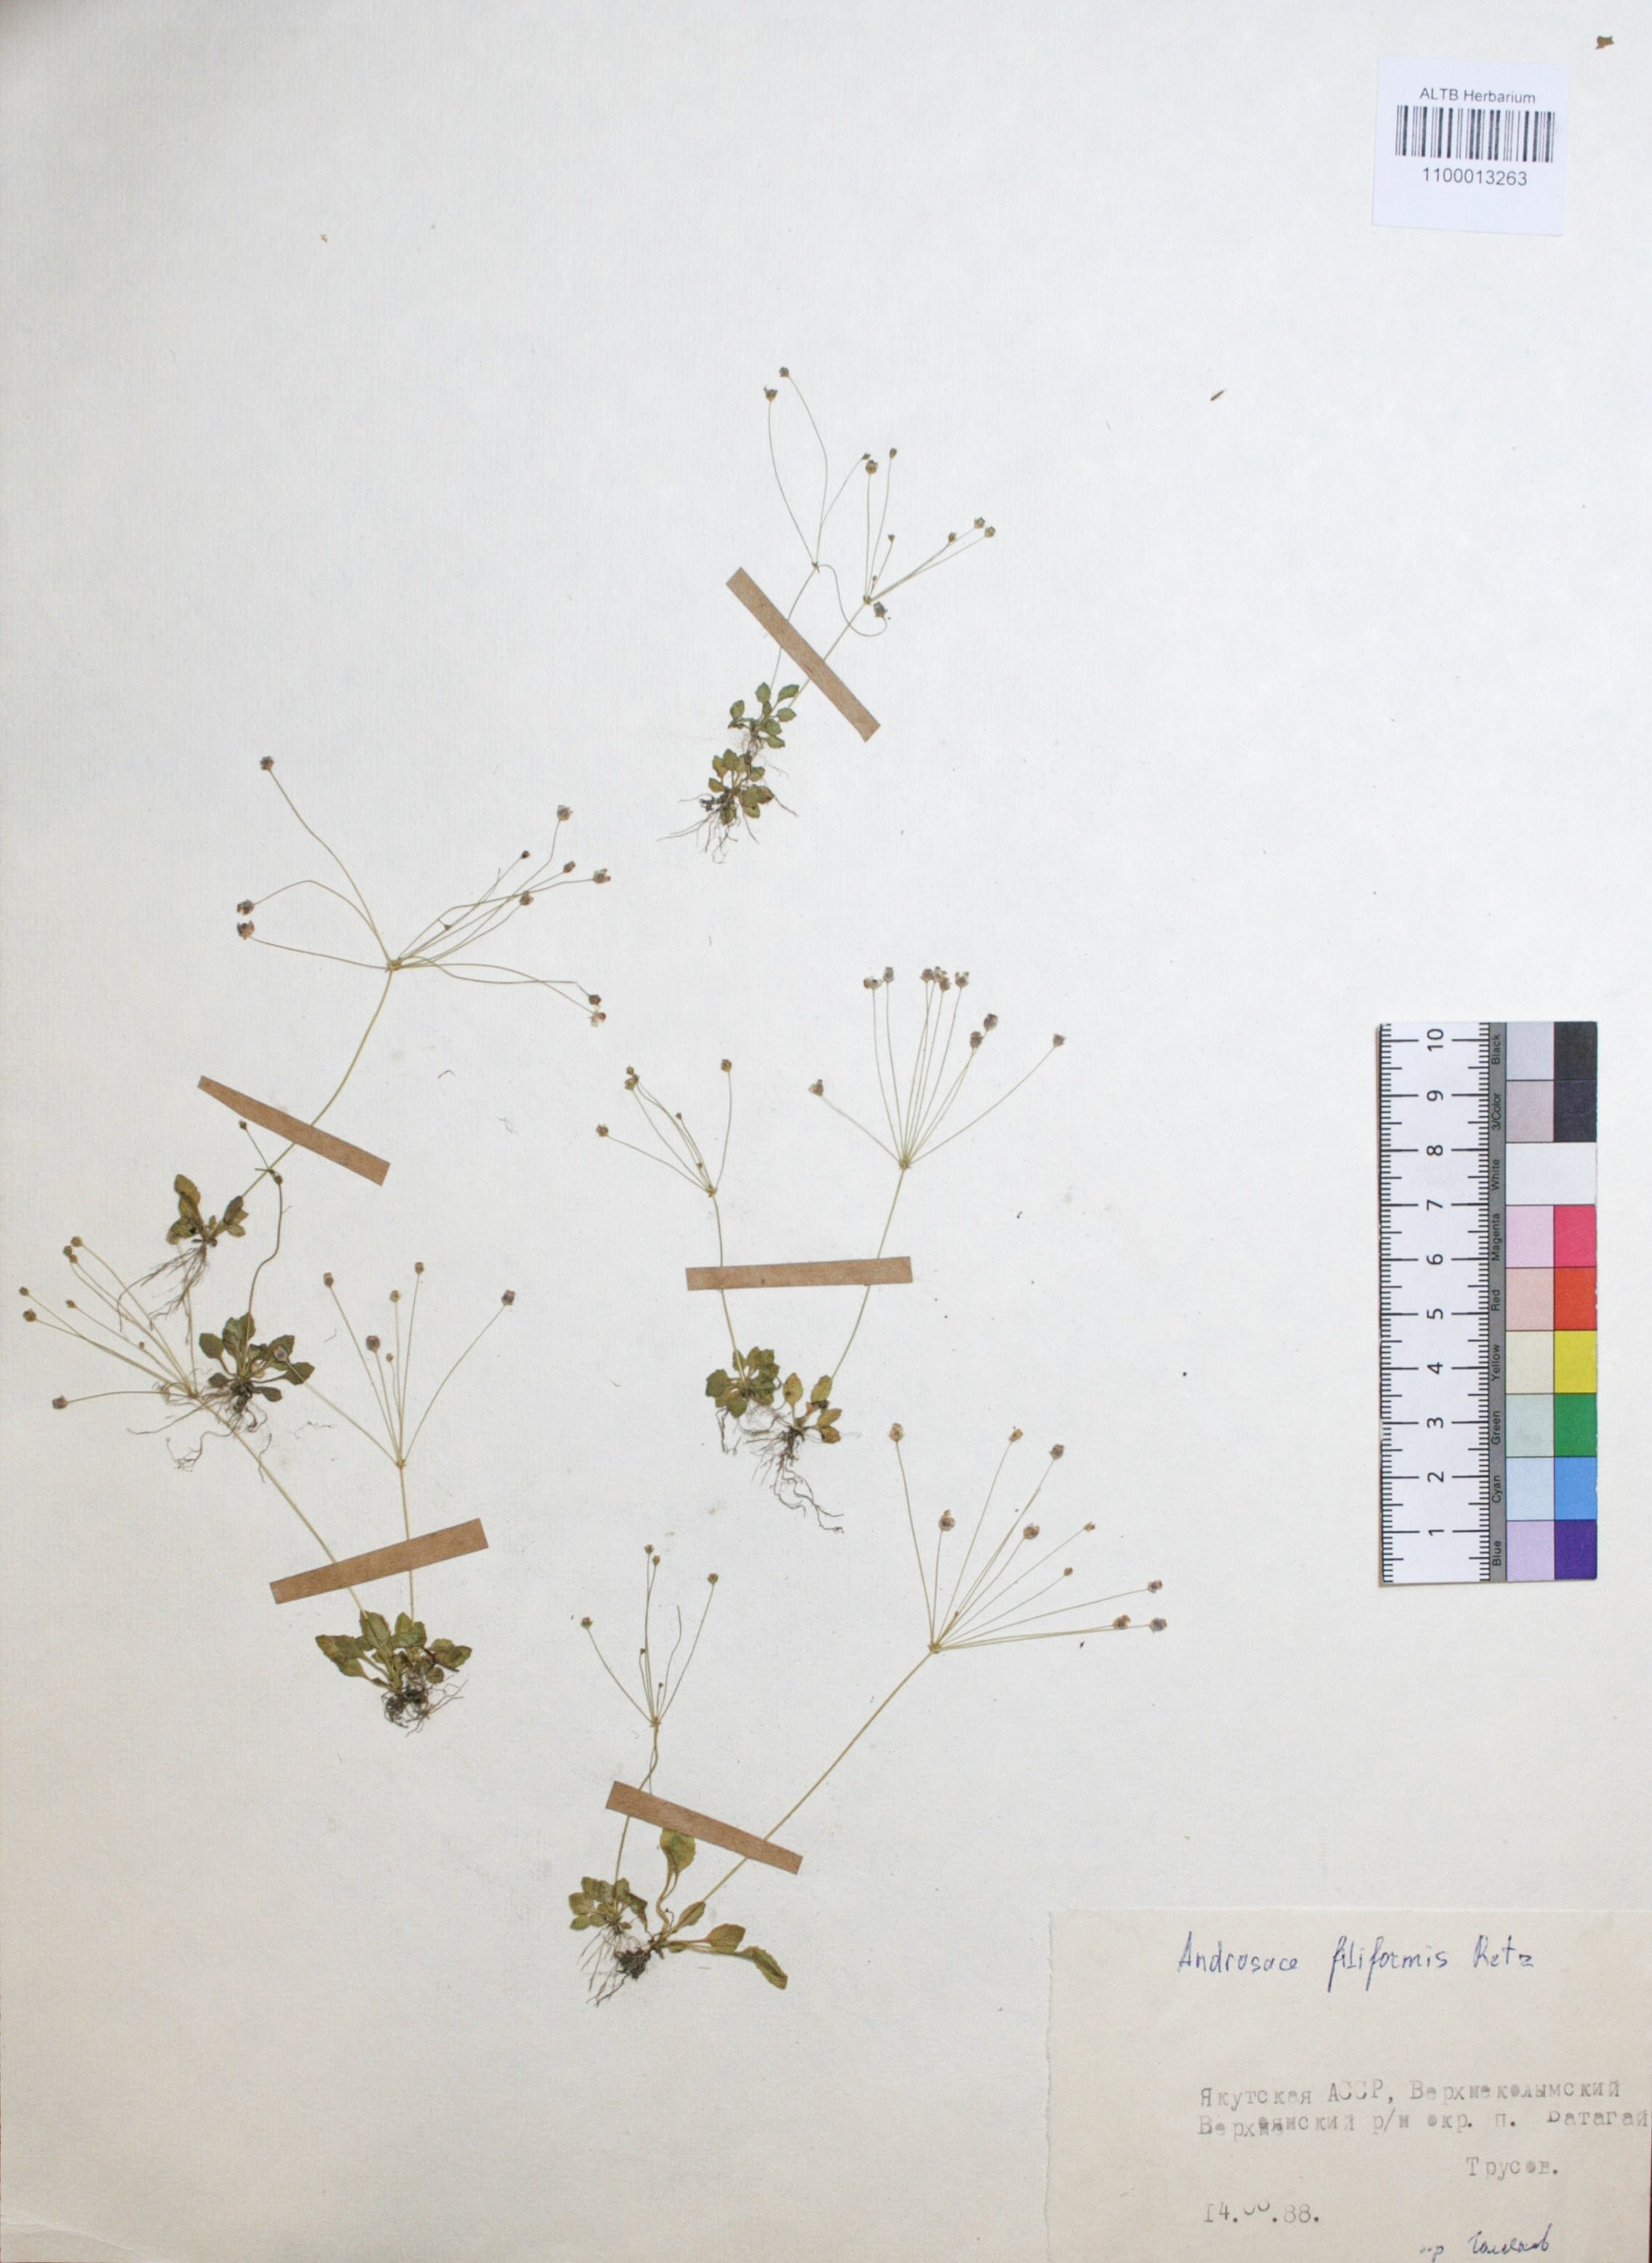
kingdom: Plantae
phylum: Tracheophyta
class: Magnoliopsida
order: Ericales
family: Primulaceae
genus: Androsace
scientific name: Androsace filiformis
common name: Filiform rock jasmine
